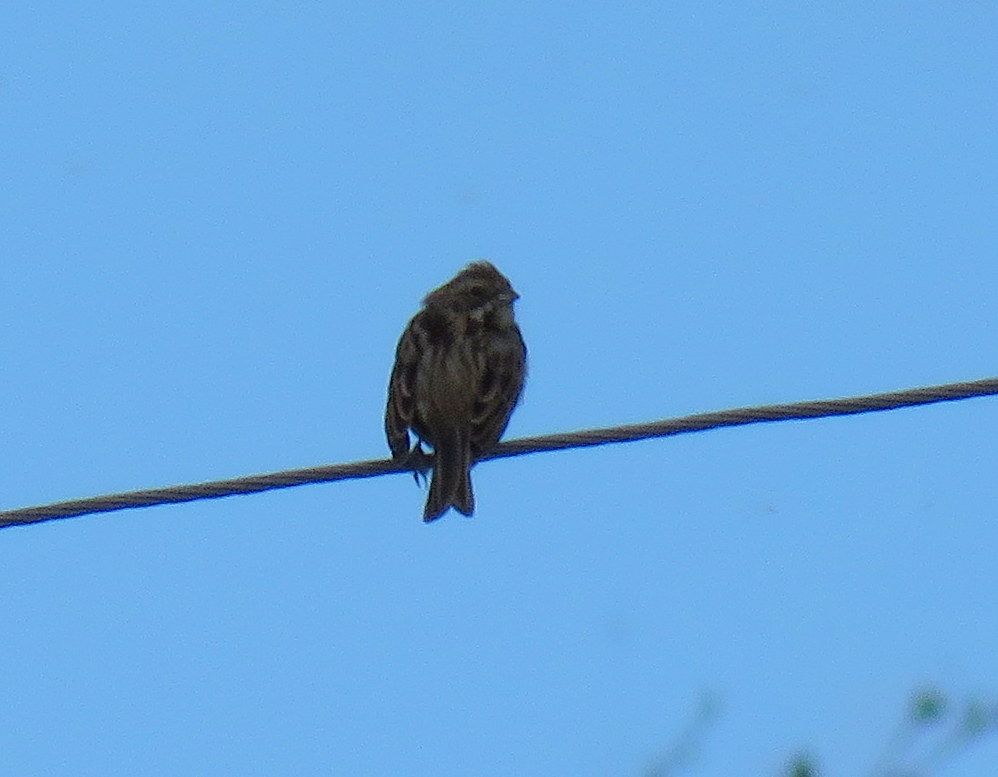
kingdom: Animalia
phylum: Chordata
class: Aves
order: Passeriformes
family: Emberizidae
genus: Emberiza
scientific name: Emberiza schoeniclus
